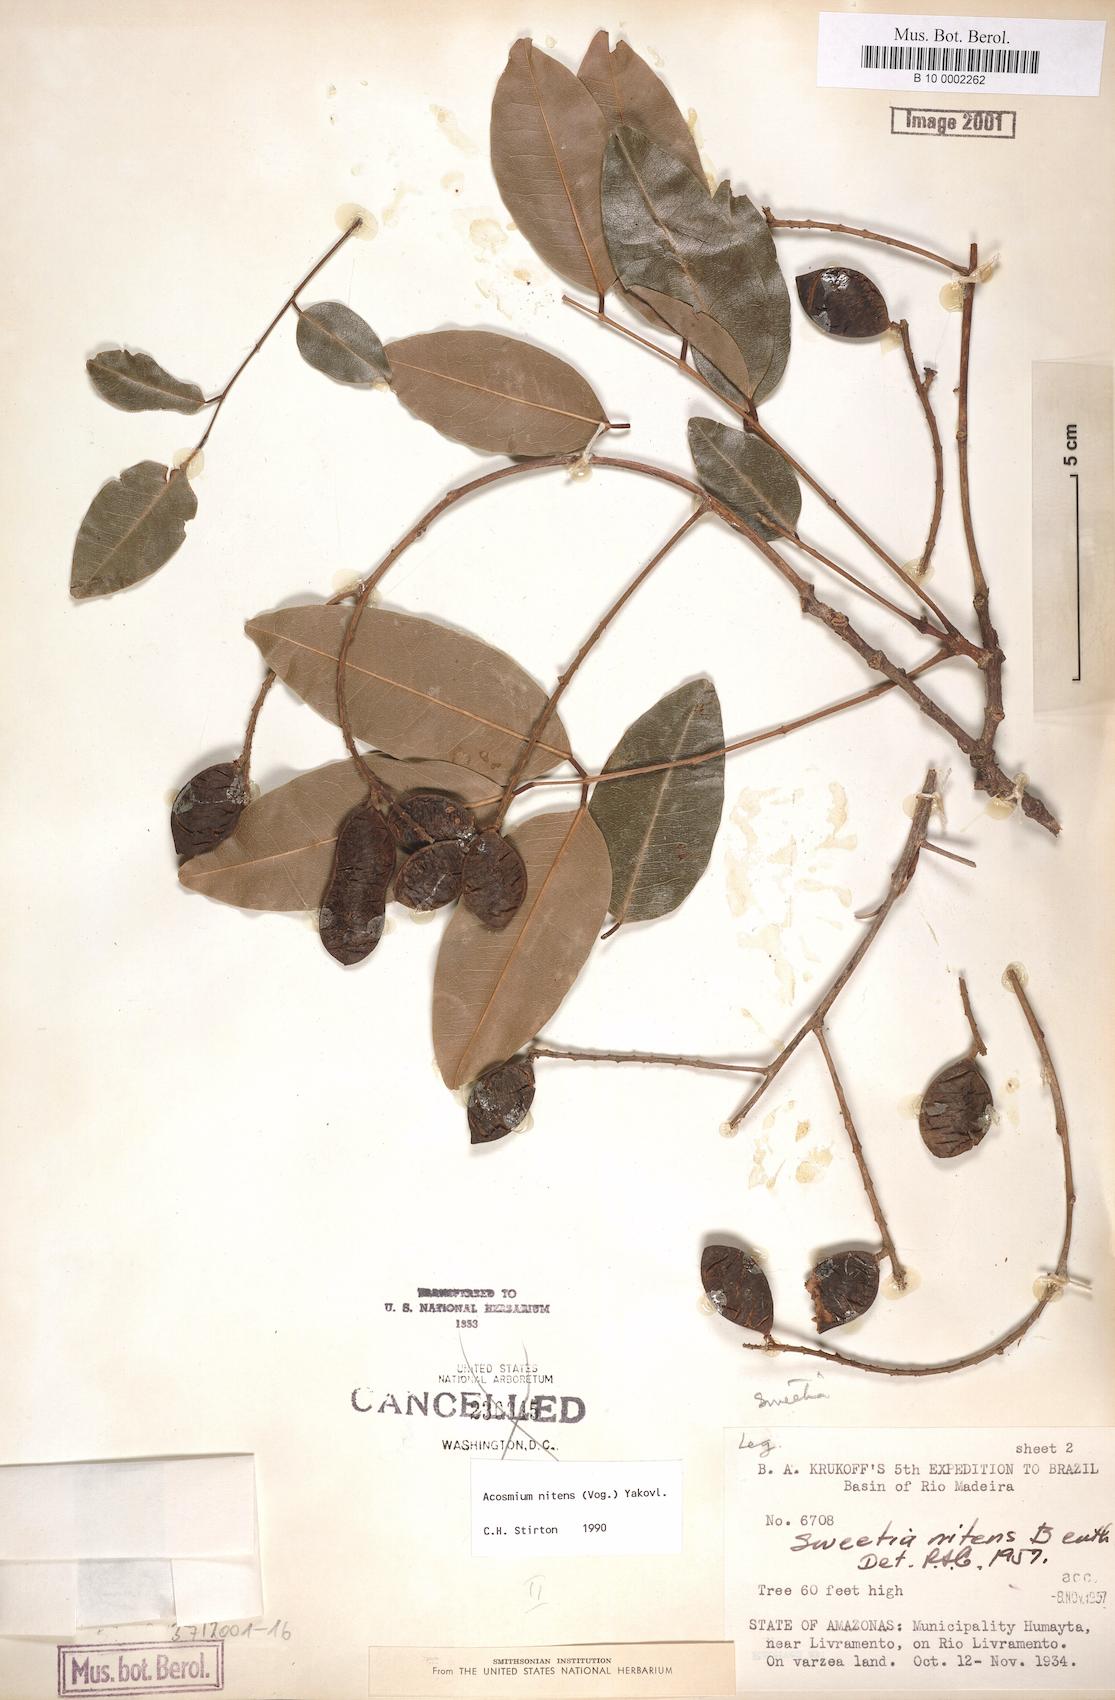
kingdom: Plantae
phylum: Tracheophyta
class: Magnoliopsida
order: Fabales
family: Fabaceae
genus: Leptolobium
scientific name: Leptolobium nitens
